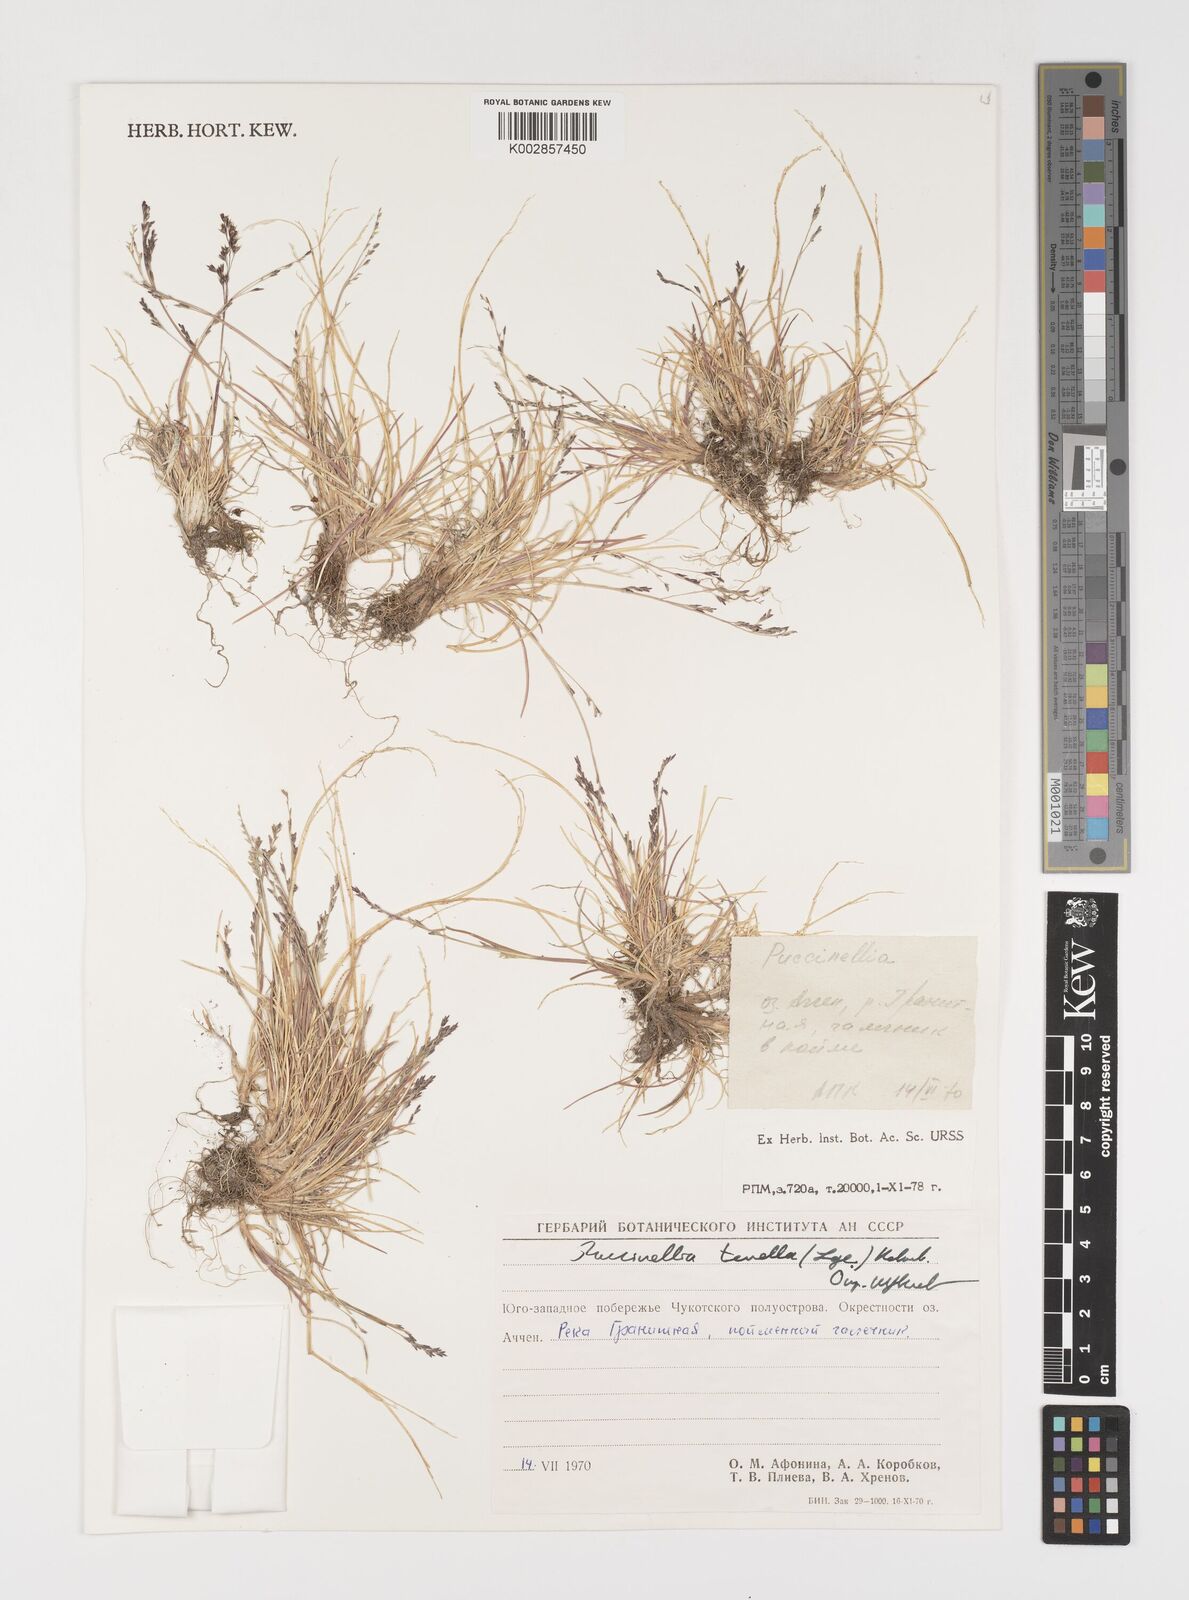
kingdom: Plantae
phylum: Tracheophyta
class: Liliopsida
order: Poales
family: Poaceae
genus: Puccinellia
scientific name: Puccinellia tenella
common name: Tundra alkaligrass
